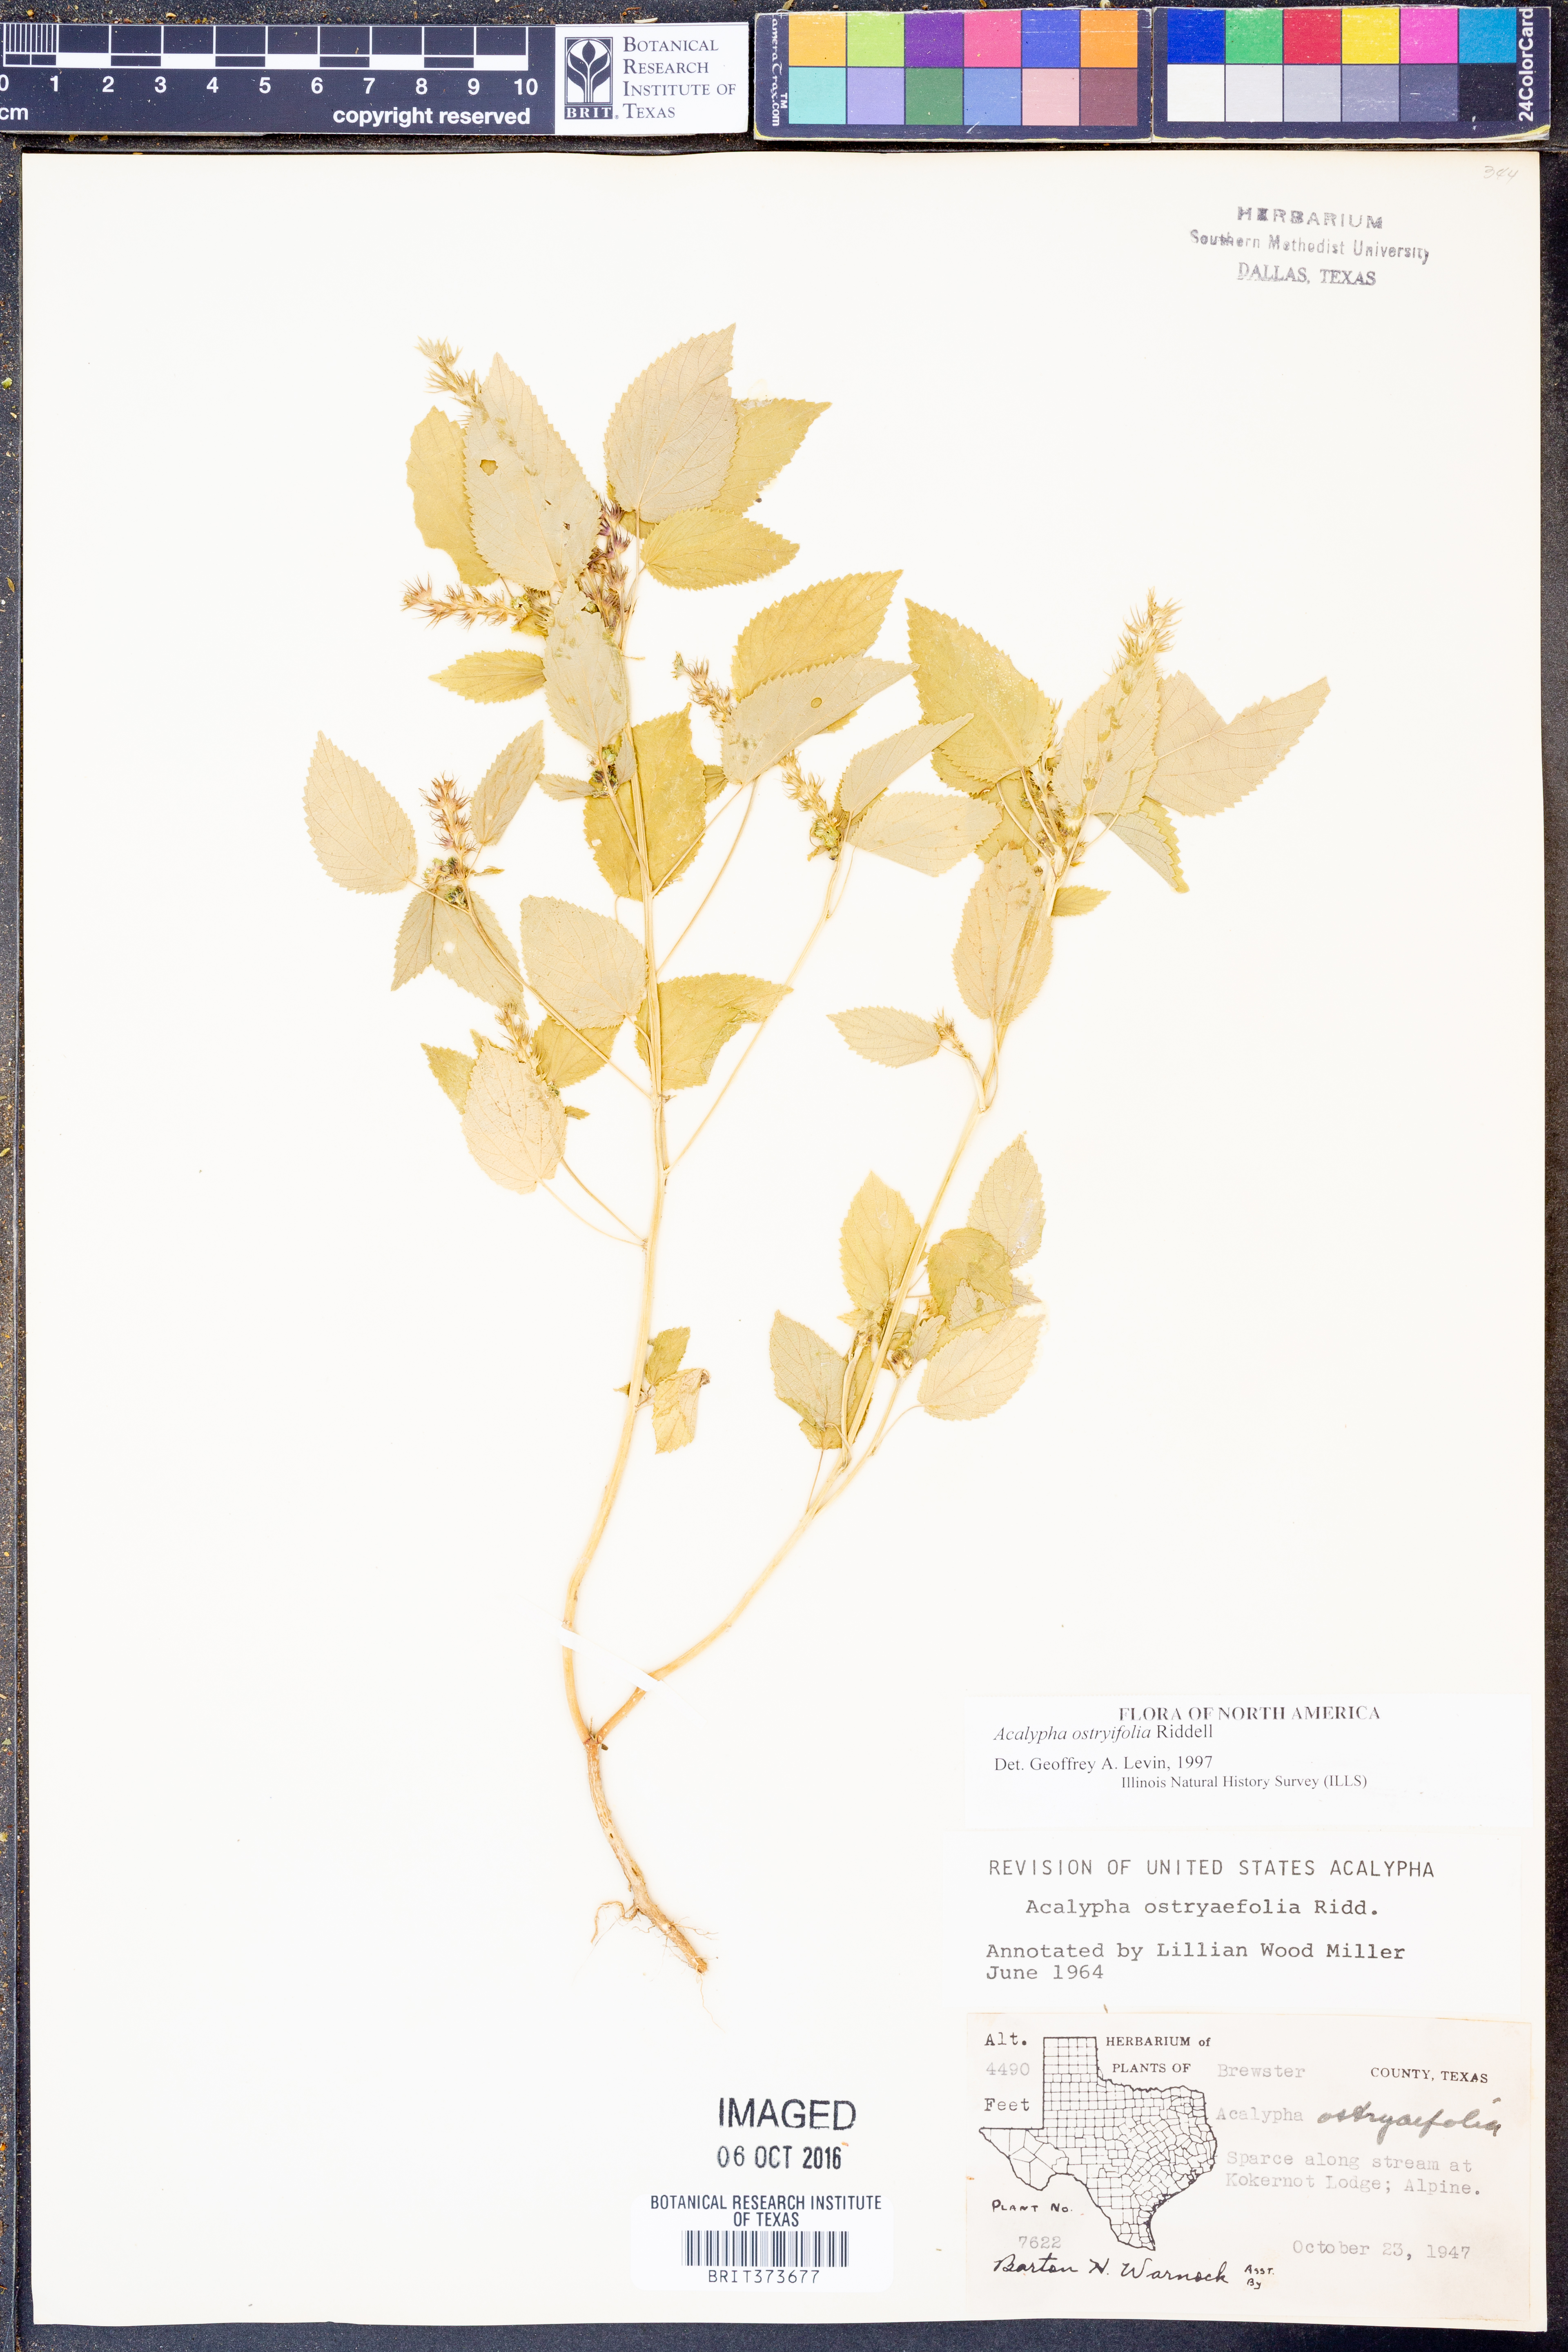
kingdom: Plantae
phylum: Tracheophyta
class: Magnoliopsida
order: Malpighiales
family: Euphorbiaceae
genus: Acalypha
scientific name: Acalypha persimilis
